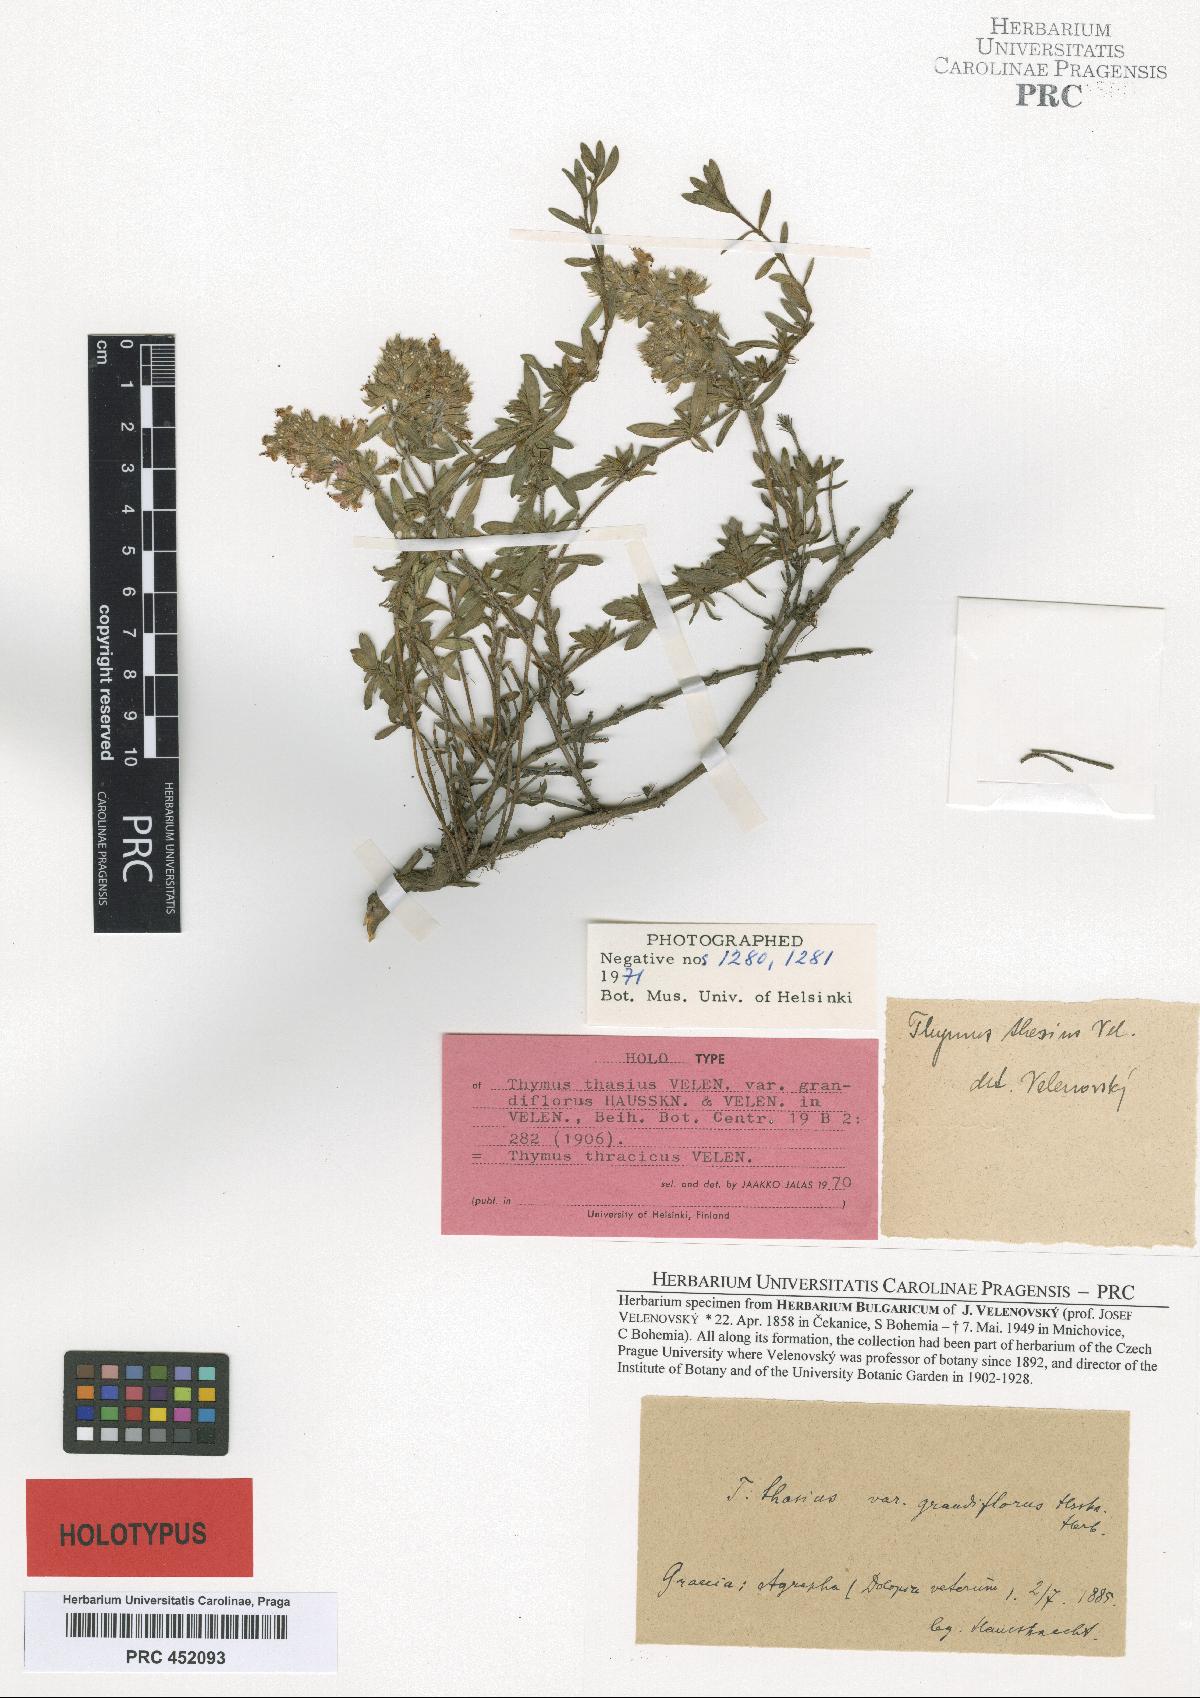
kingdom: Plantae
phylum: Tracheophyta
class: Magnoliopsida
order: Lamiales
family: Lamiaceae
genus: Thymus
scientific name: Thymus thracicus
